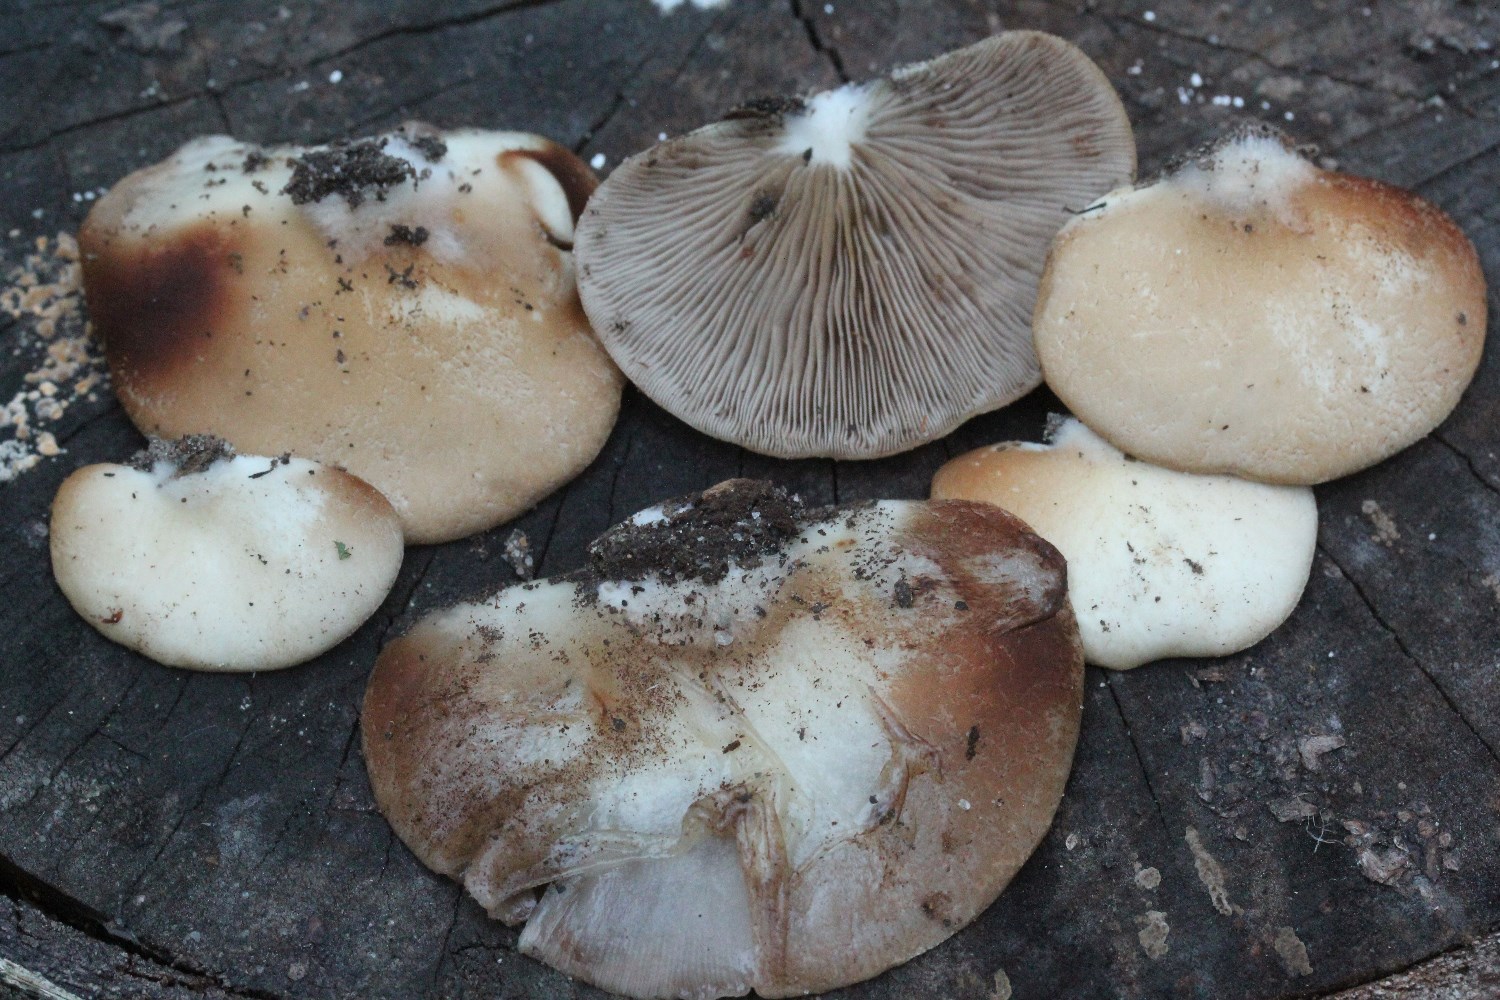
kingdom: Fungi
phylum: Basidiomycota
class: Agaricomycetes
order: Agaricales
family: Crepidotaceae
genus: Crepidotus
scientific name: Crepidotus mollis
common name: blød muslingesvamp
